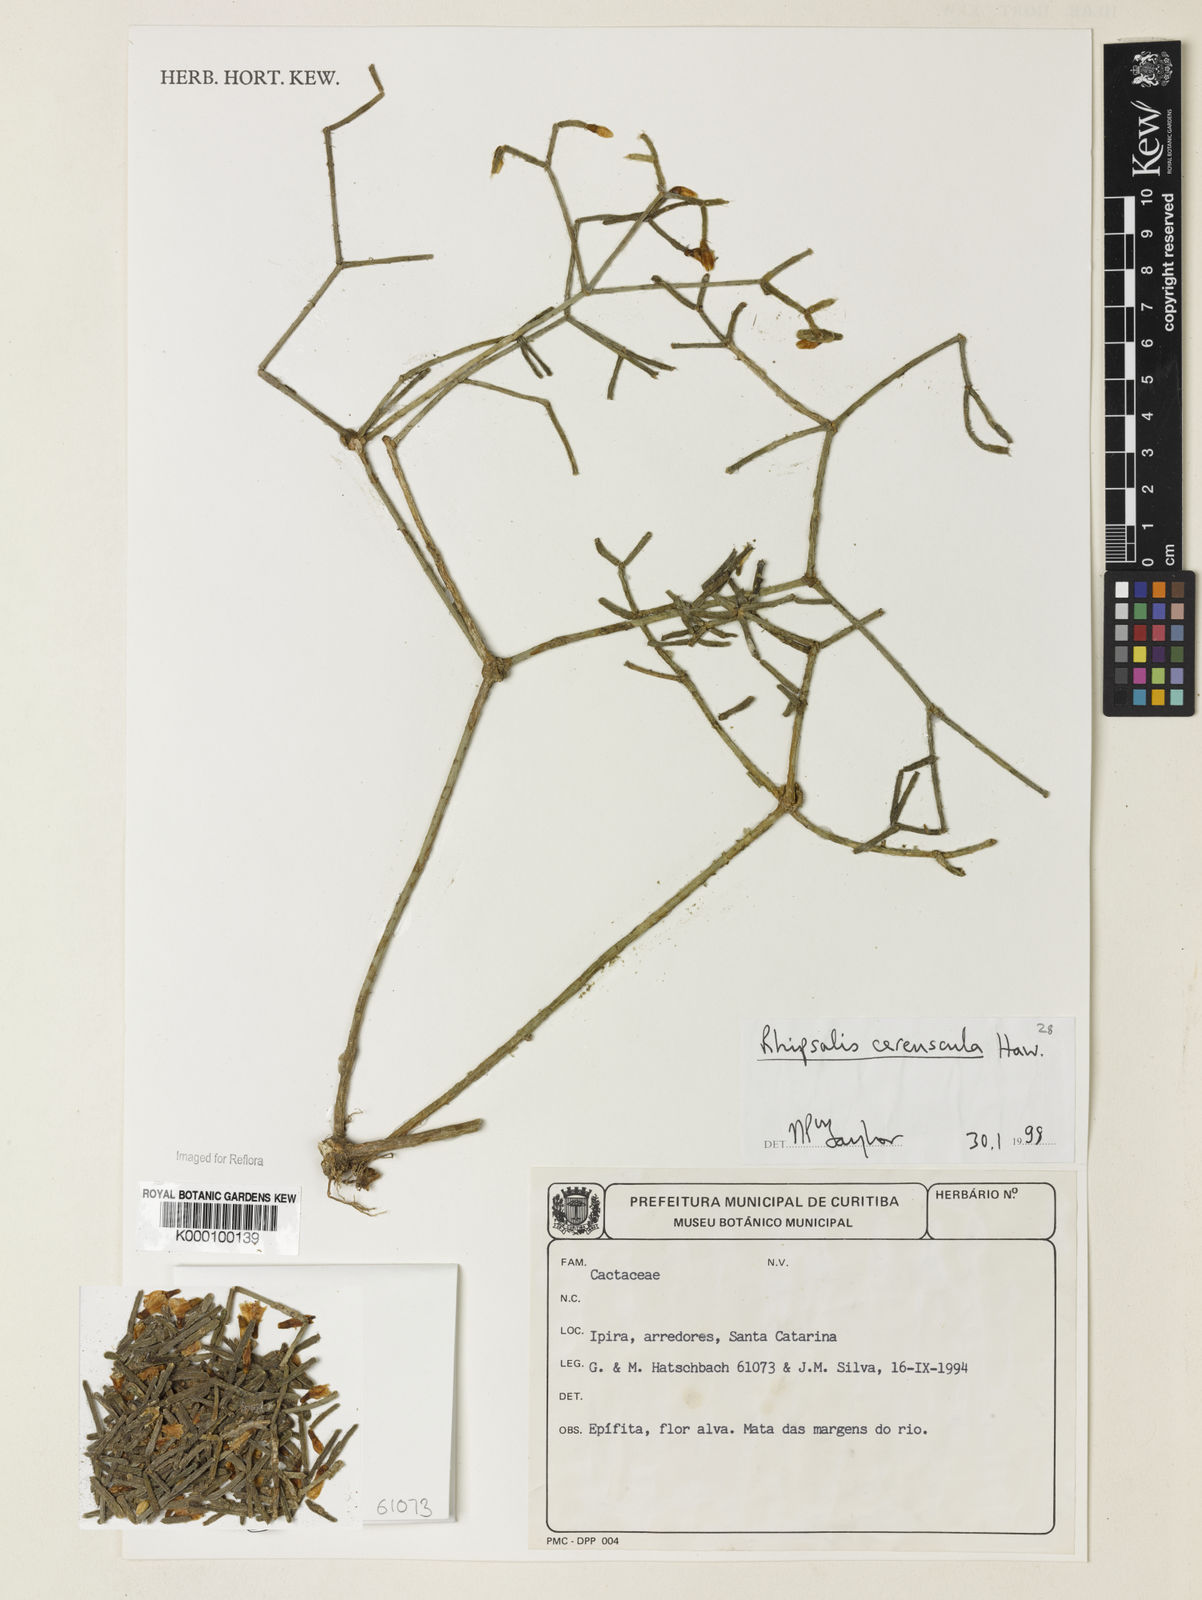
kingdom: Plantae
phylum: Tracheophyta
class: Magnoliopsida
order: Caryophyllales
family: Cactaceae
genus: Rhipsalis
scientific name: Rhipsalis cereuscula
